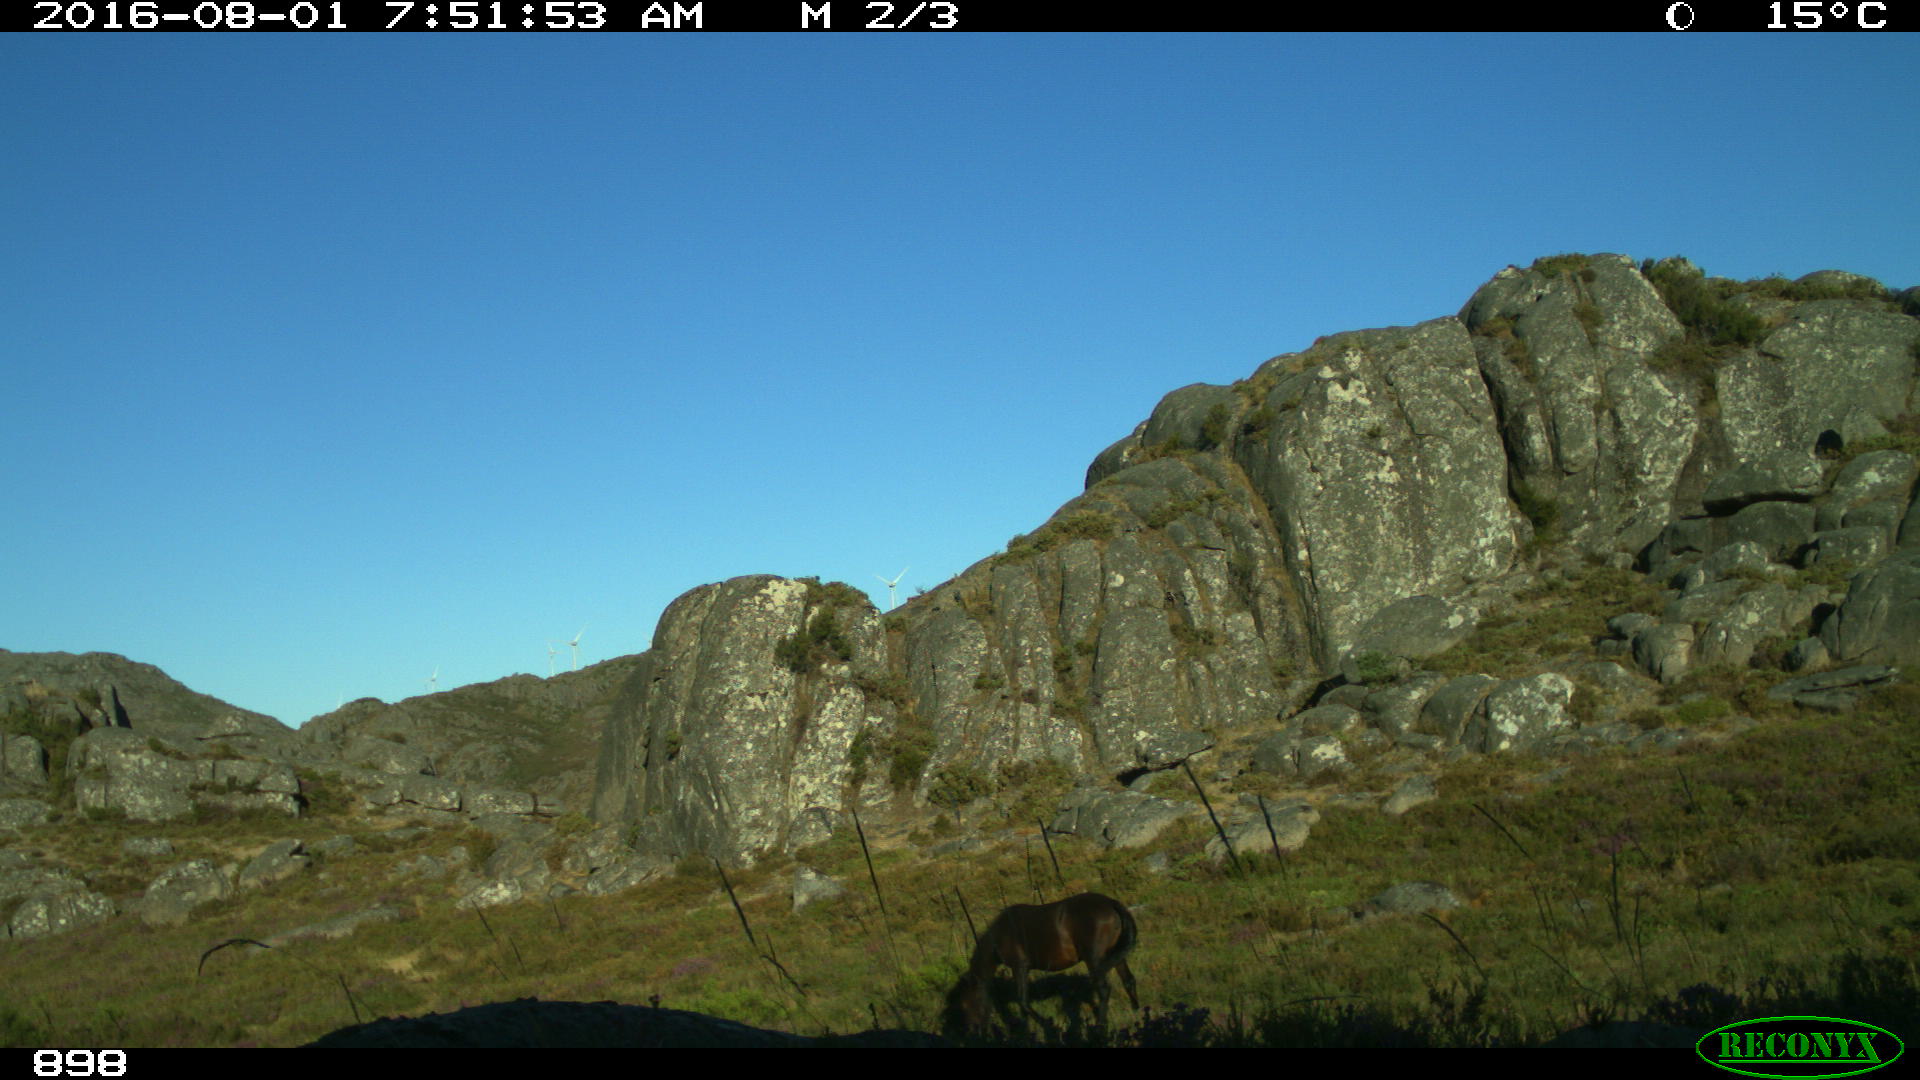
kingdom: Animalia
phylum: Chordata
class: Mammalia
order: Perissodactyla
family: Equidae
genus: Equus
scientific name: Equus caballus
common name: Horse
